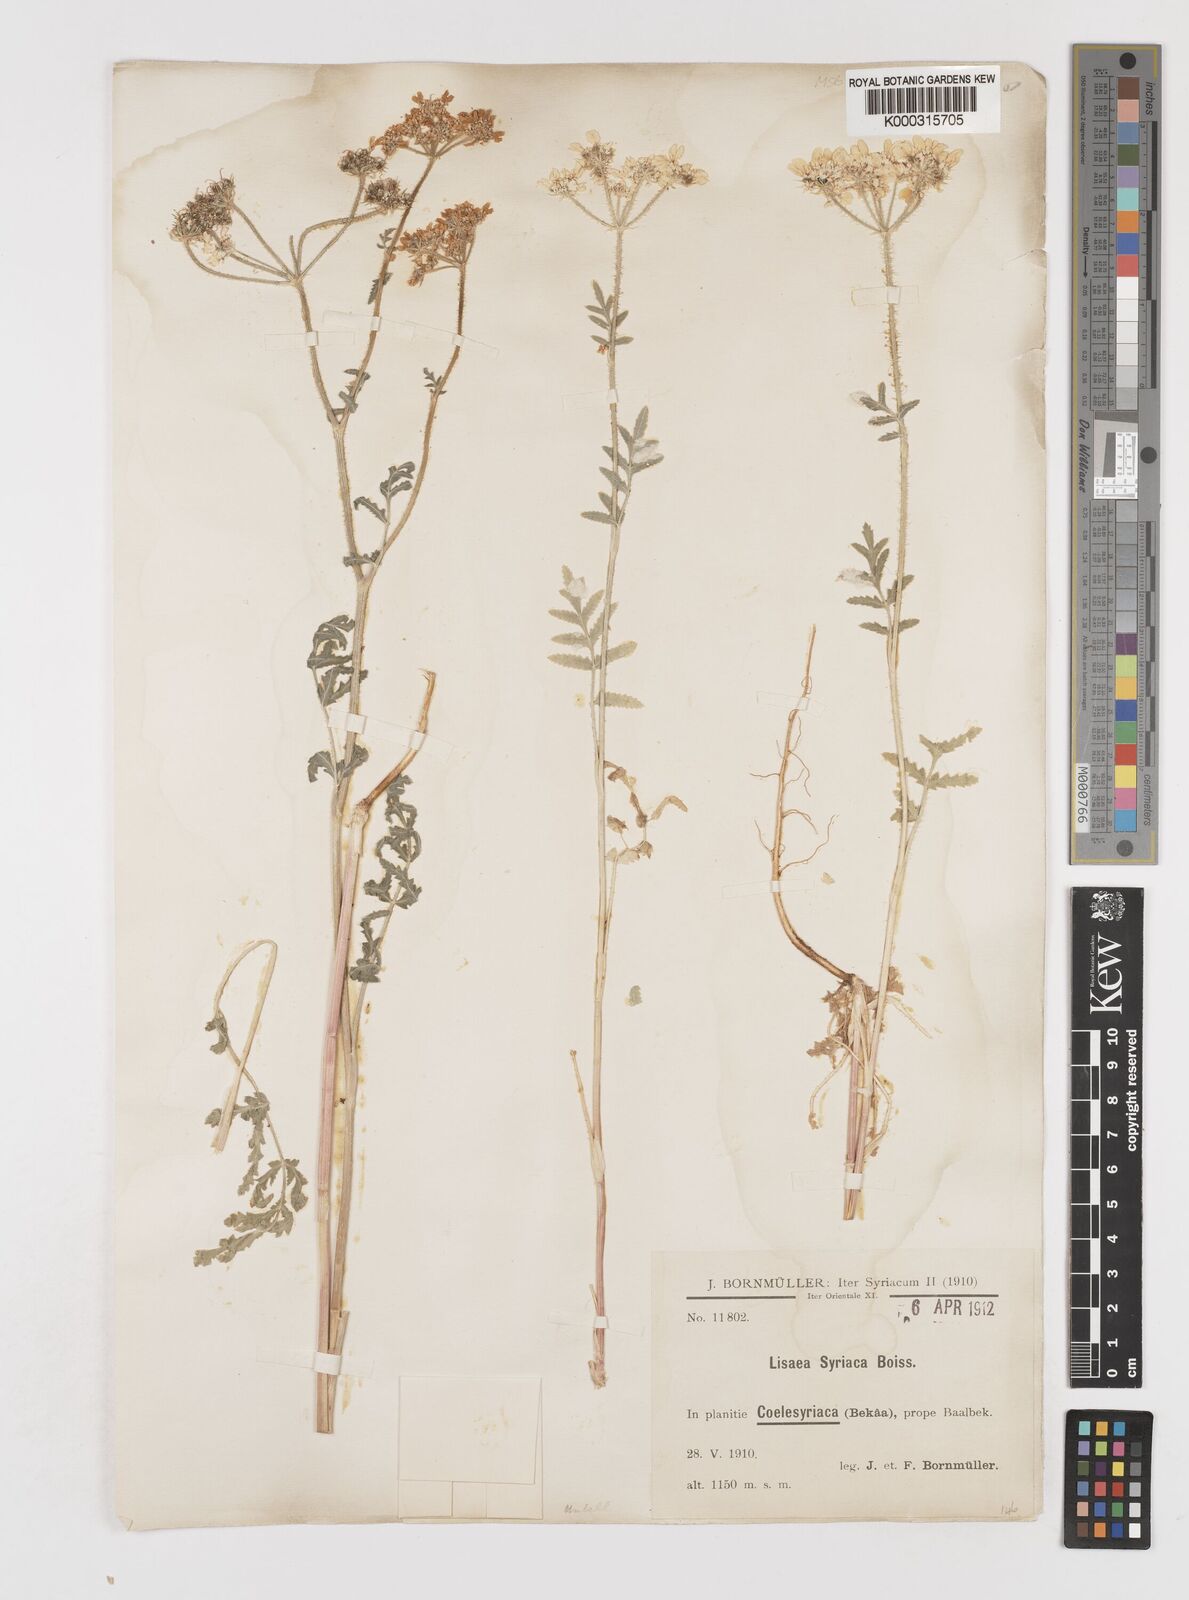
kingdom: Plantae
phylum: Tracheophyta
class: Magnoliopsida
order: Apiales
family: Apiaceae
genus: Lisaea
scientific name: Lisaea strigosa
